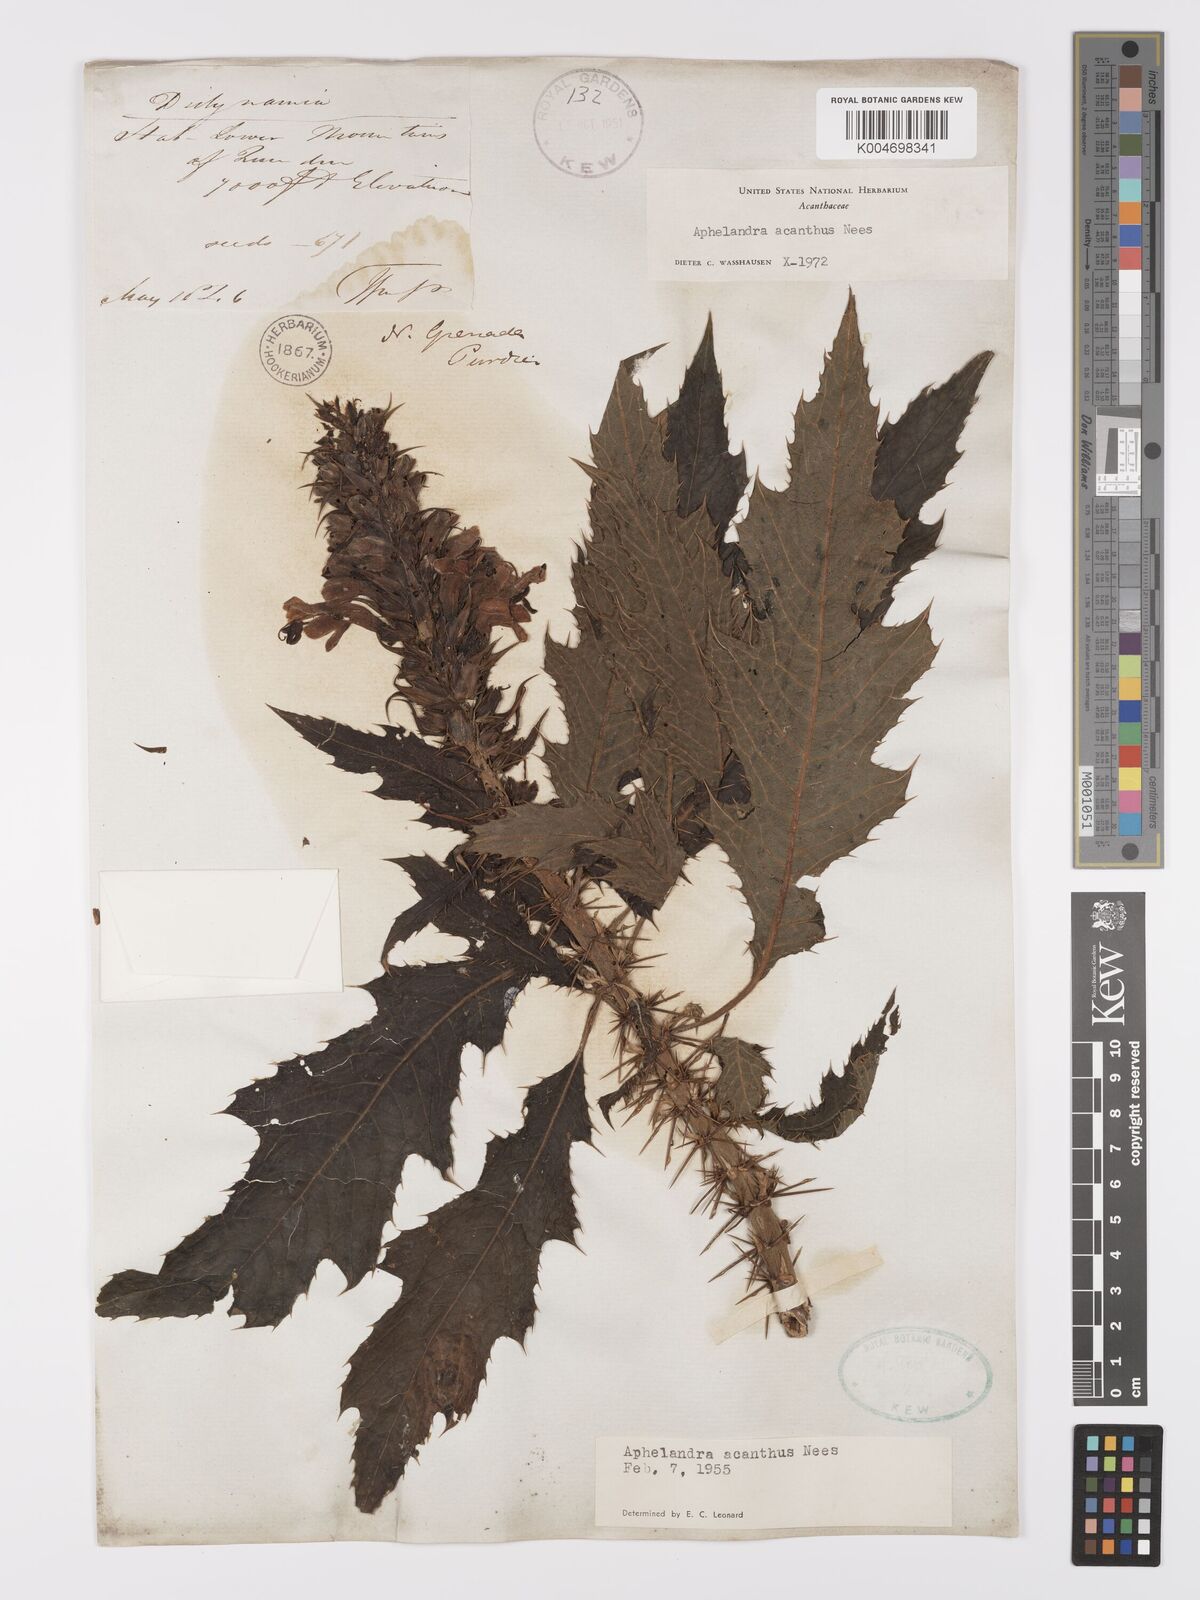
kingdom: Plantae
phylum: Tracheophyta
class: Magnoliopsida
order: Lamiales
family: Acanthaceae
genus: Aphelandra
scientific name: Aphelandra runcinata
